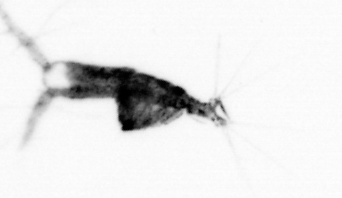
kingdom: Animalia
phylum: Arthropoda
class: Copepoda
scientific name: Copepoda
